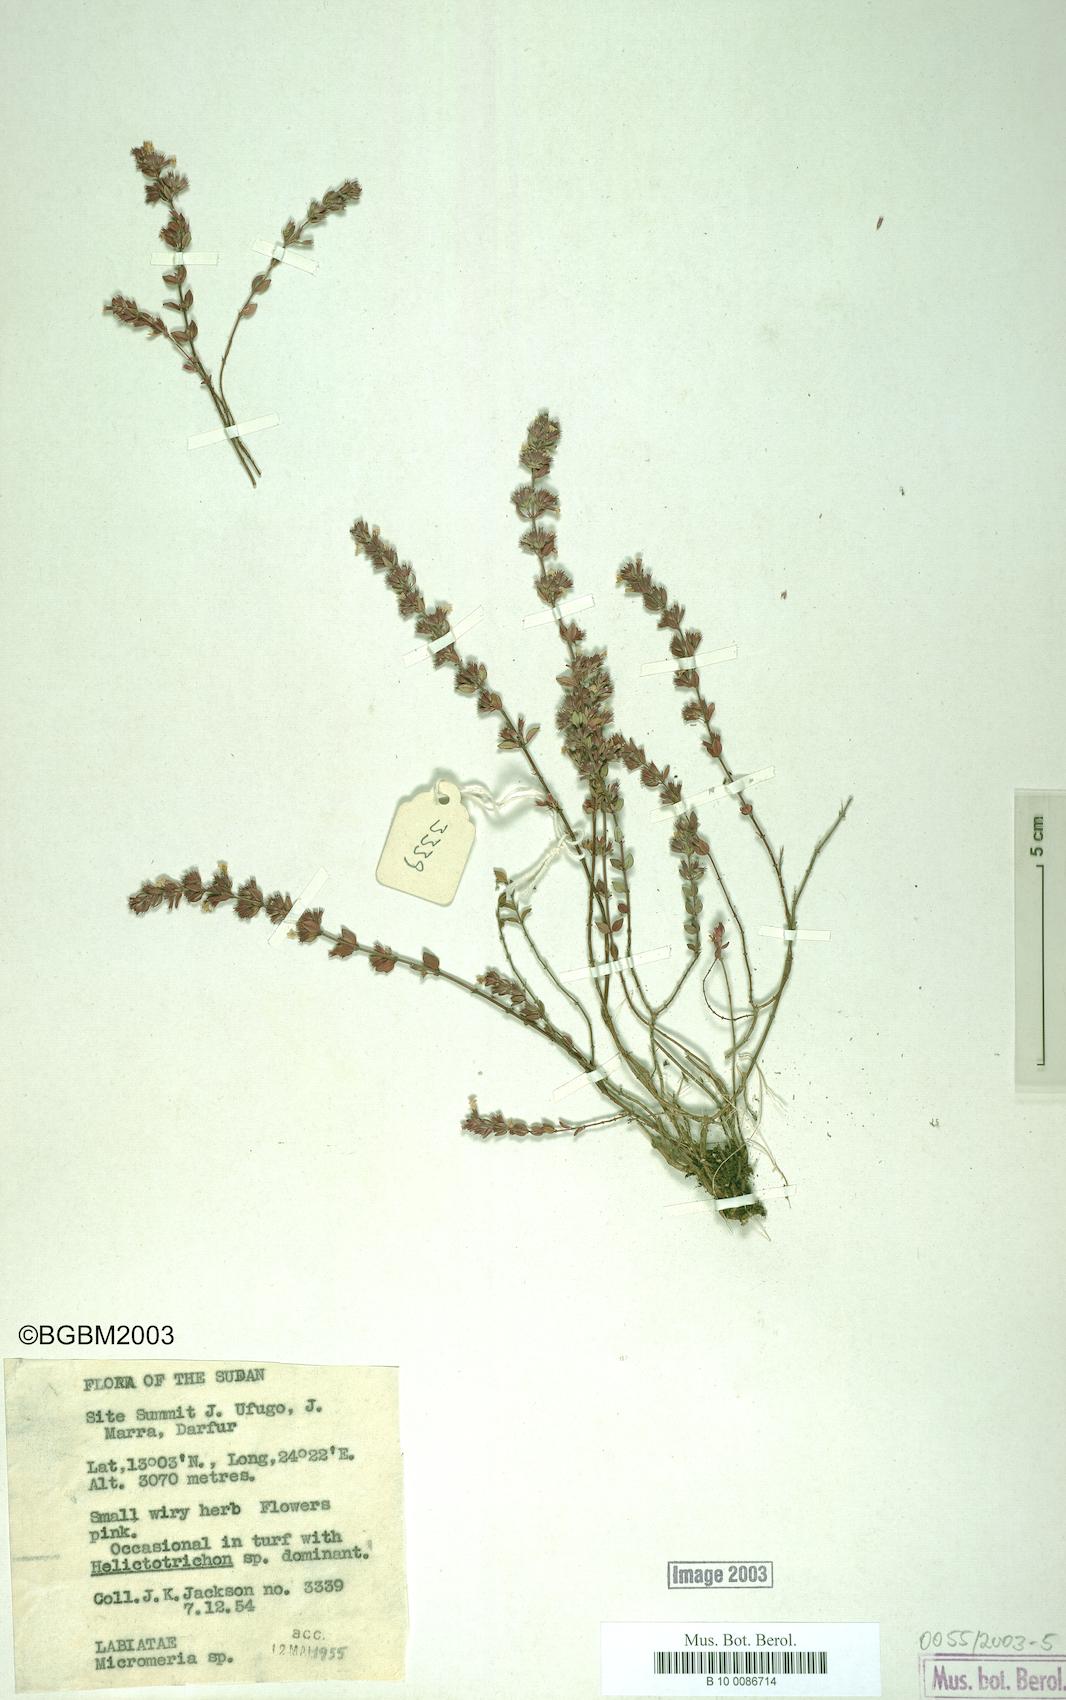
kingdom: Plantae
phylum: Tracheophyta
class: Magnoliopsida
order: Lamiales
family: Lamiaceae
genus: Micromeria
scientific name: Micromeria
